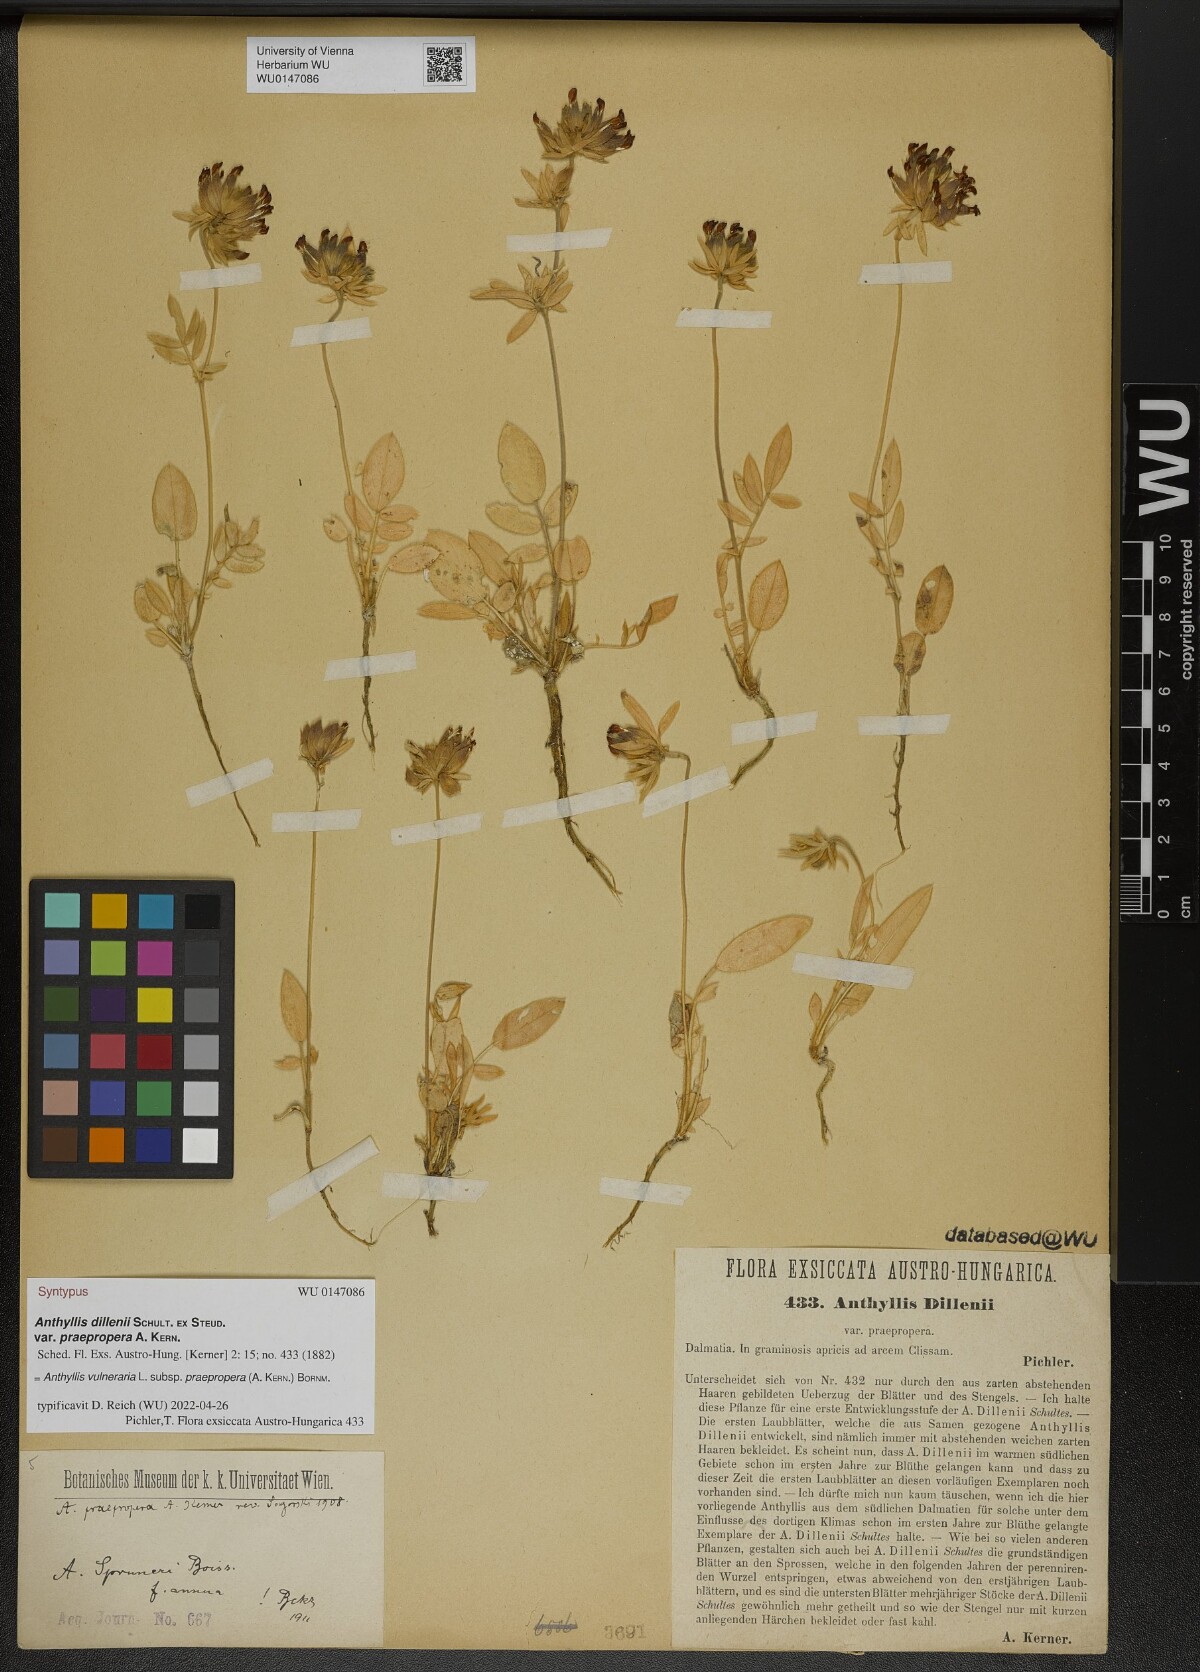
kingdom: Plantae
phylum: Tracheophyta
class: Magnoliopsida
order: Fabales
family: Fabaceae
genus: Anthyllis
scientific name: Anthyllis vulneraria
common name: Kidney vetch
